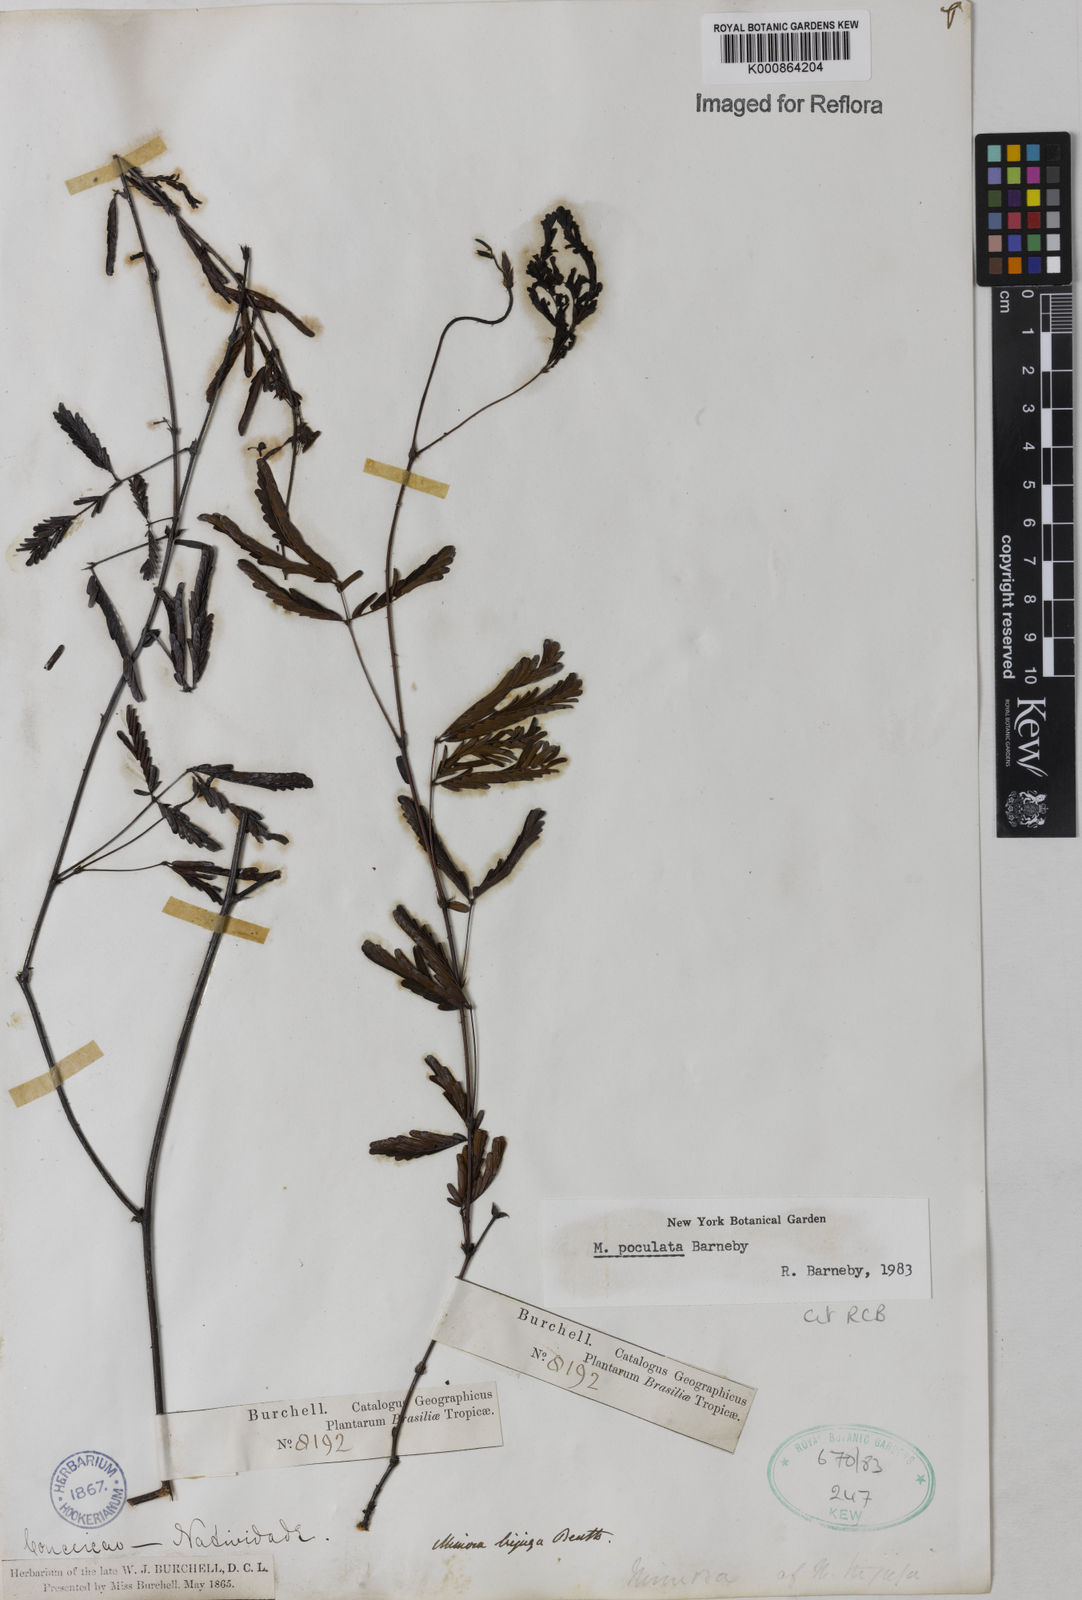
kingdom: Plantae
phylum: Tracheophyta
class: Magnoliopsida
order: Fabales
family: Fabaceae
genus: Mimosa
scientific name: Mimosa poculata
